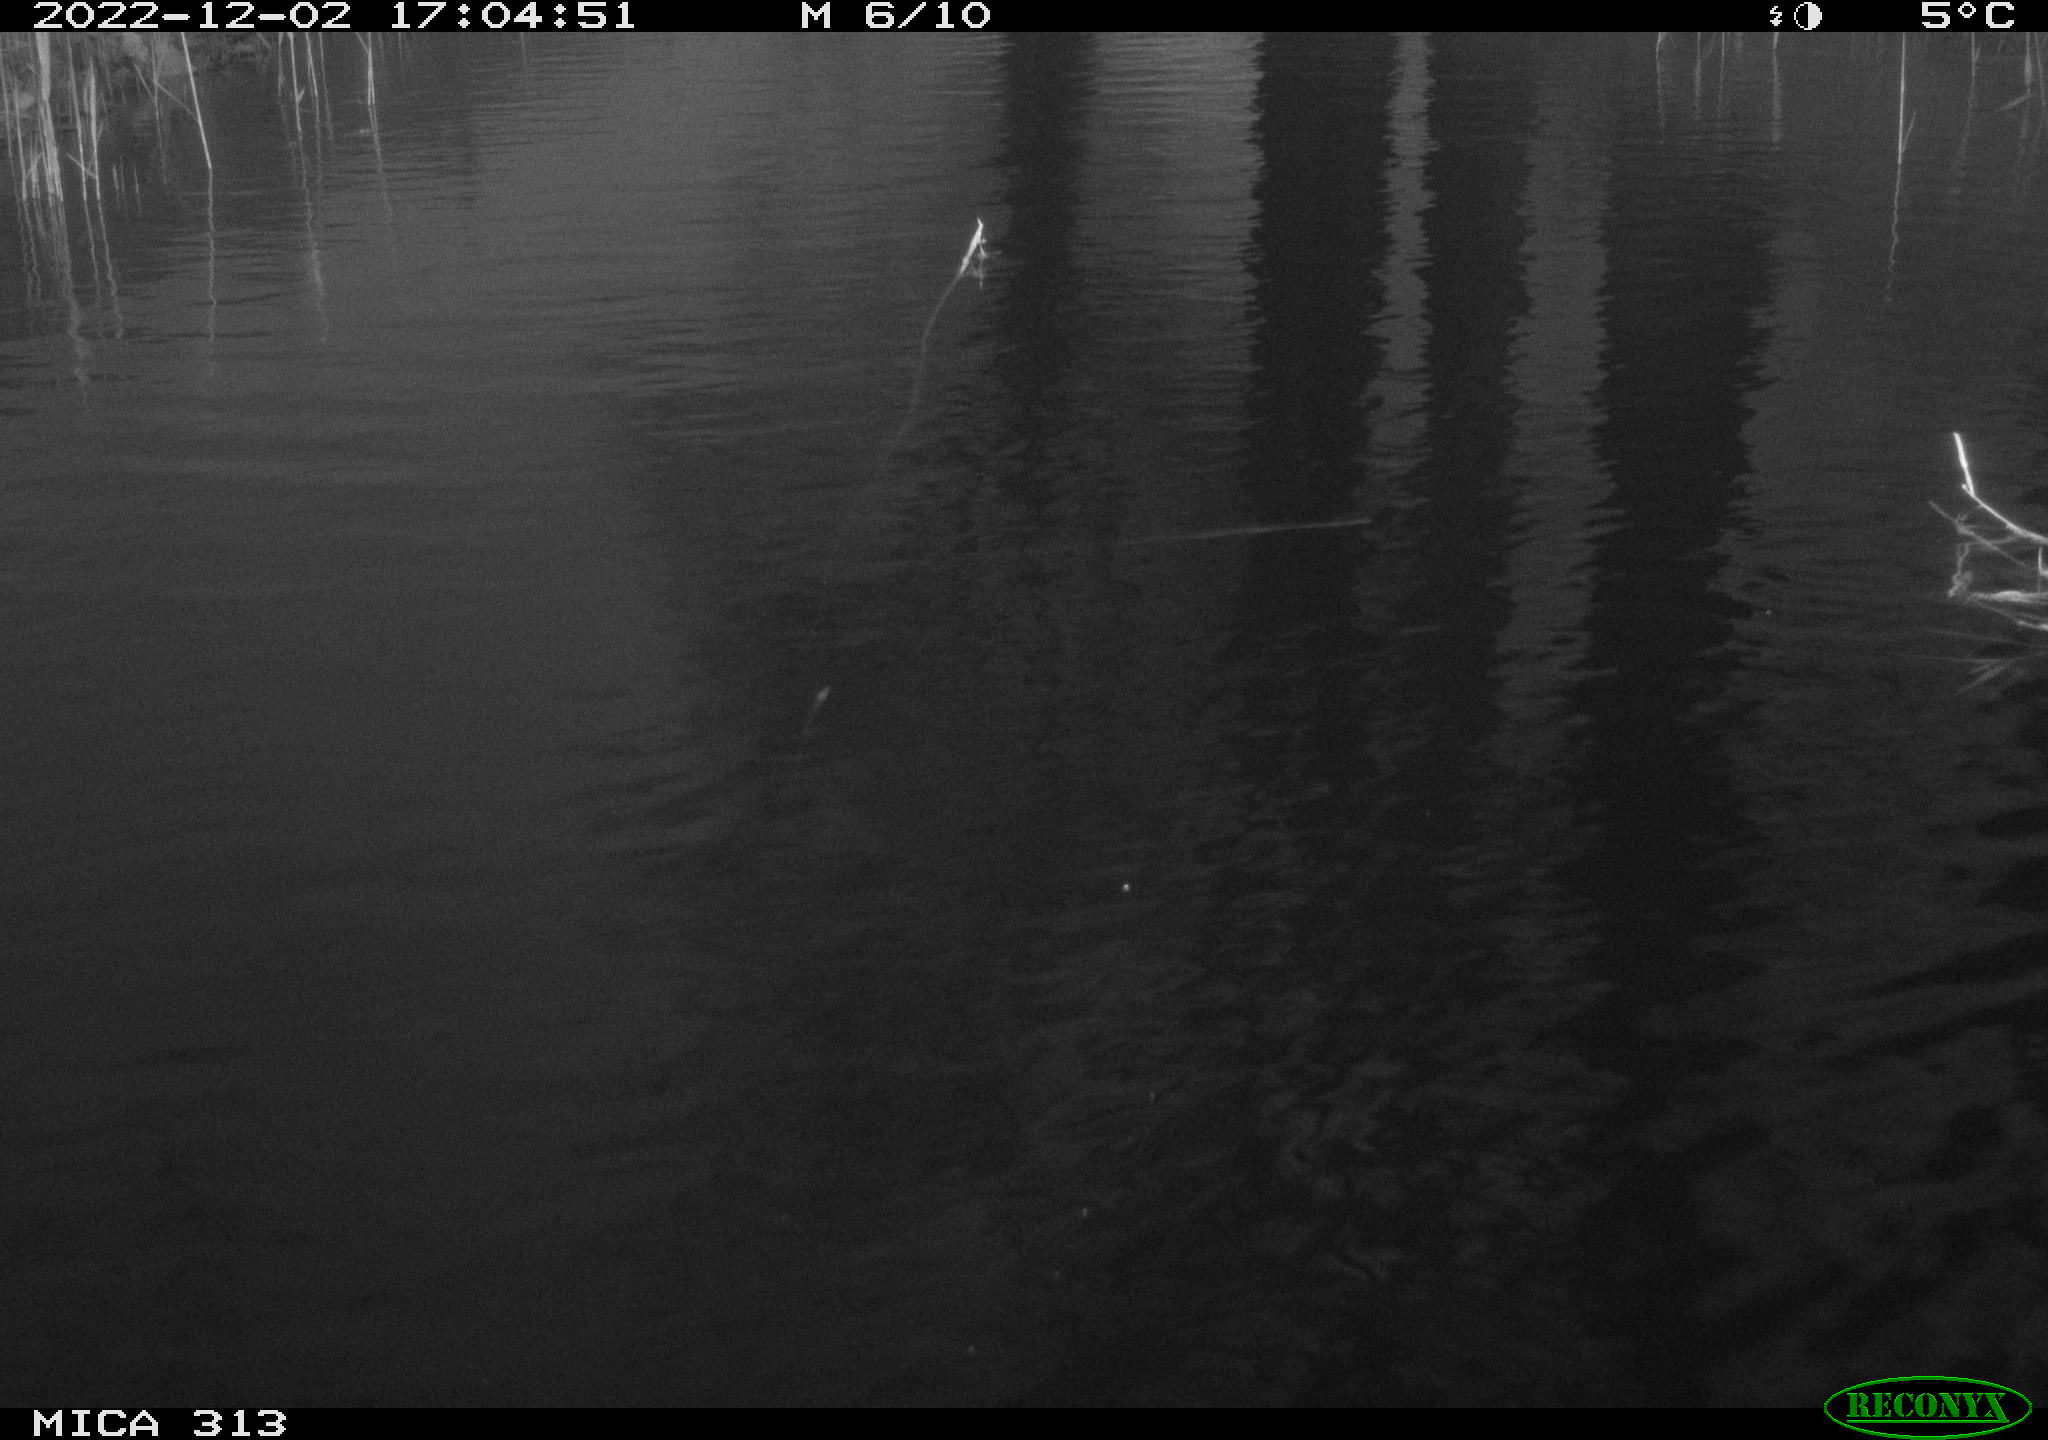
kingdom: Animalia
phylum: Chordata
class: Aves
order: Gruiformes
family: Rallidae
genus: Gallinula
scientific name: Gallinula chloropus
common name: Common moorhen
